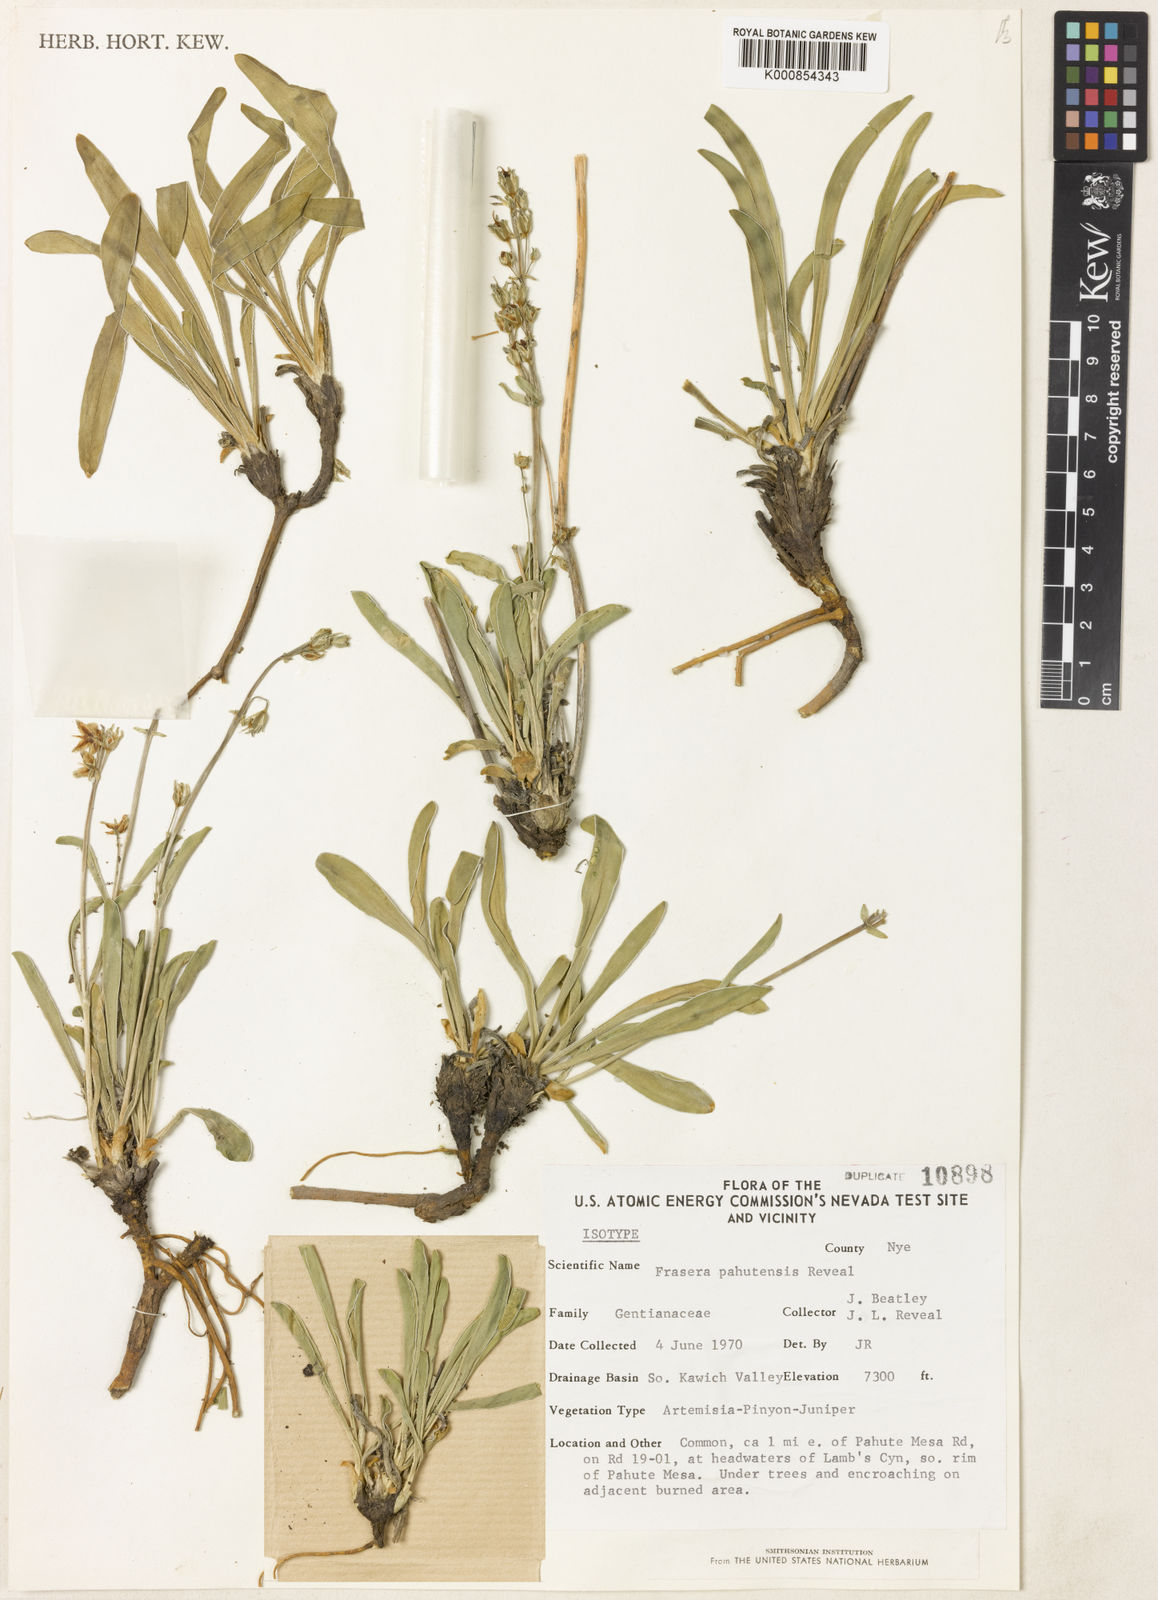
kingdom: Plantae
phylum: Tracheophyta
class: Magnoliopsida
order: Gentianales
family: Gentianaceae
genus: Frasera
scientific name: Frasera albicaulis
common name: Cusick's frasera
